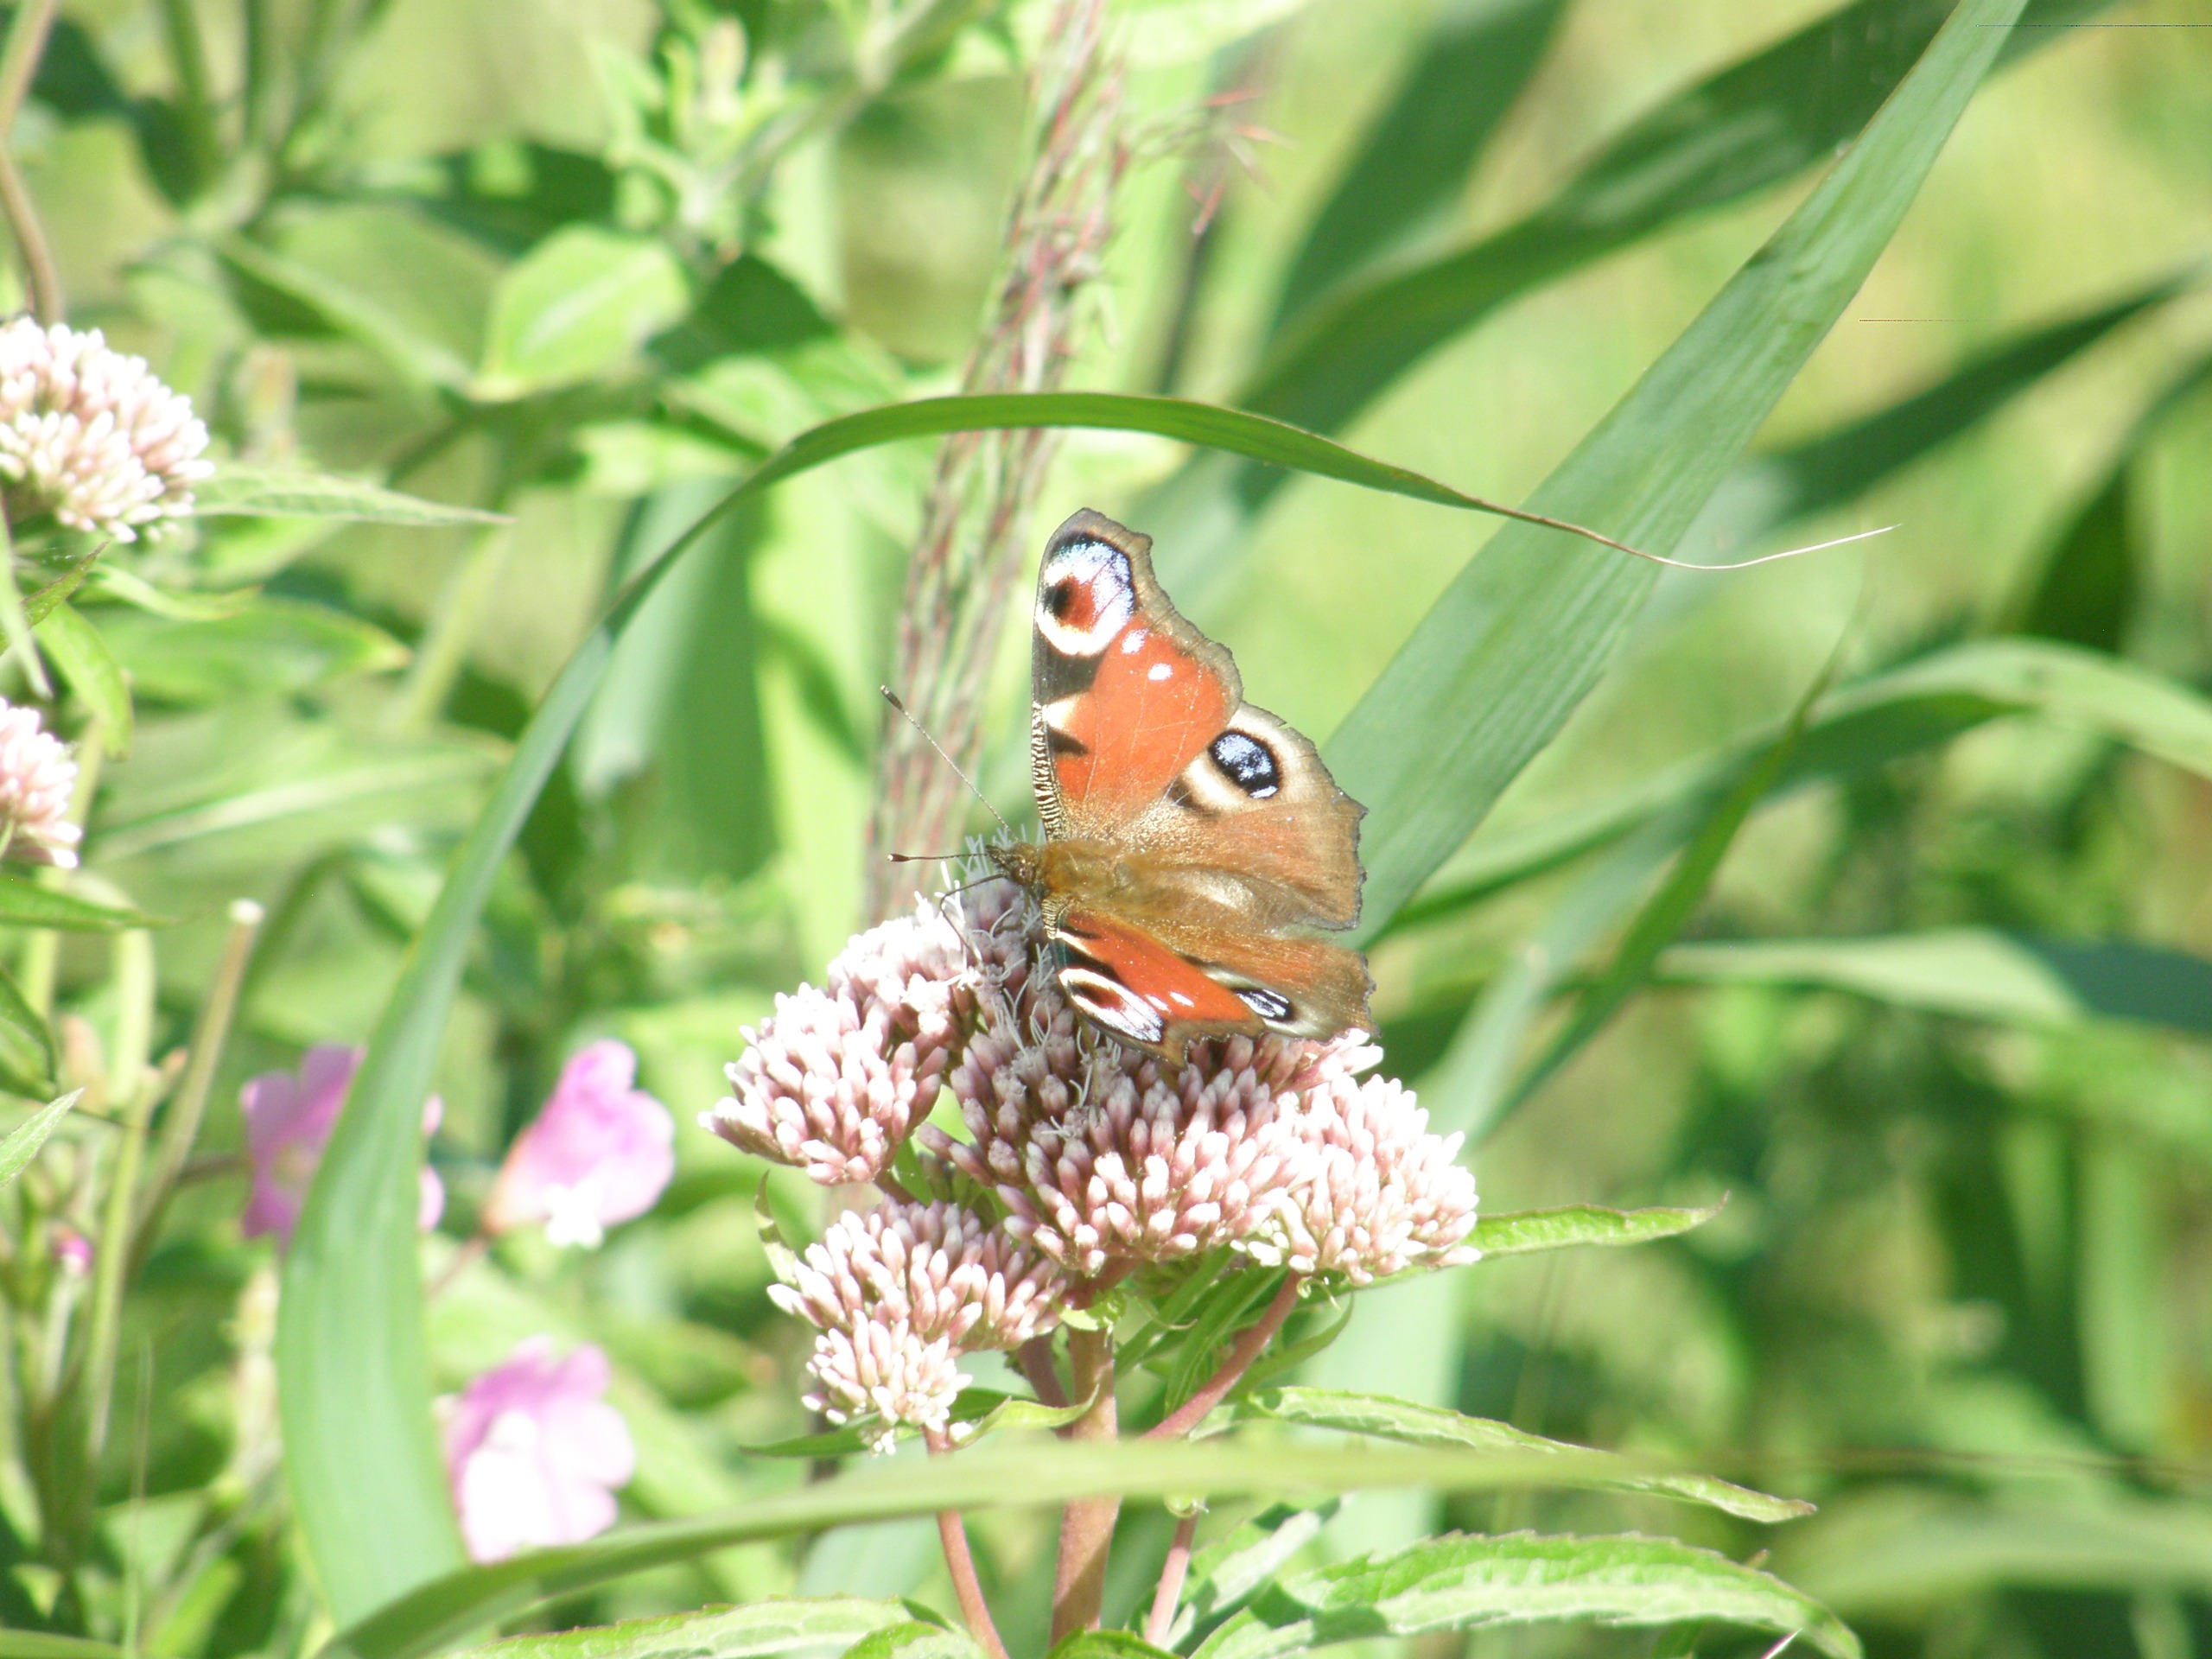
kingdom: Animalia
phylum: Arthropoda
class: Insecta
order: Lepidoptera
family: Nymphalidae
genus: Aglais
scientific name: Aglais io
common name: Dagpåfugleøje
